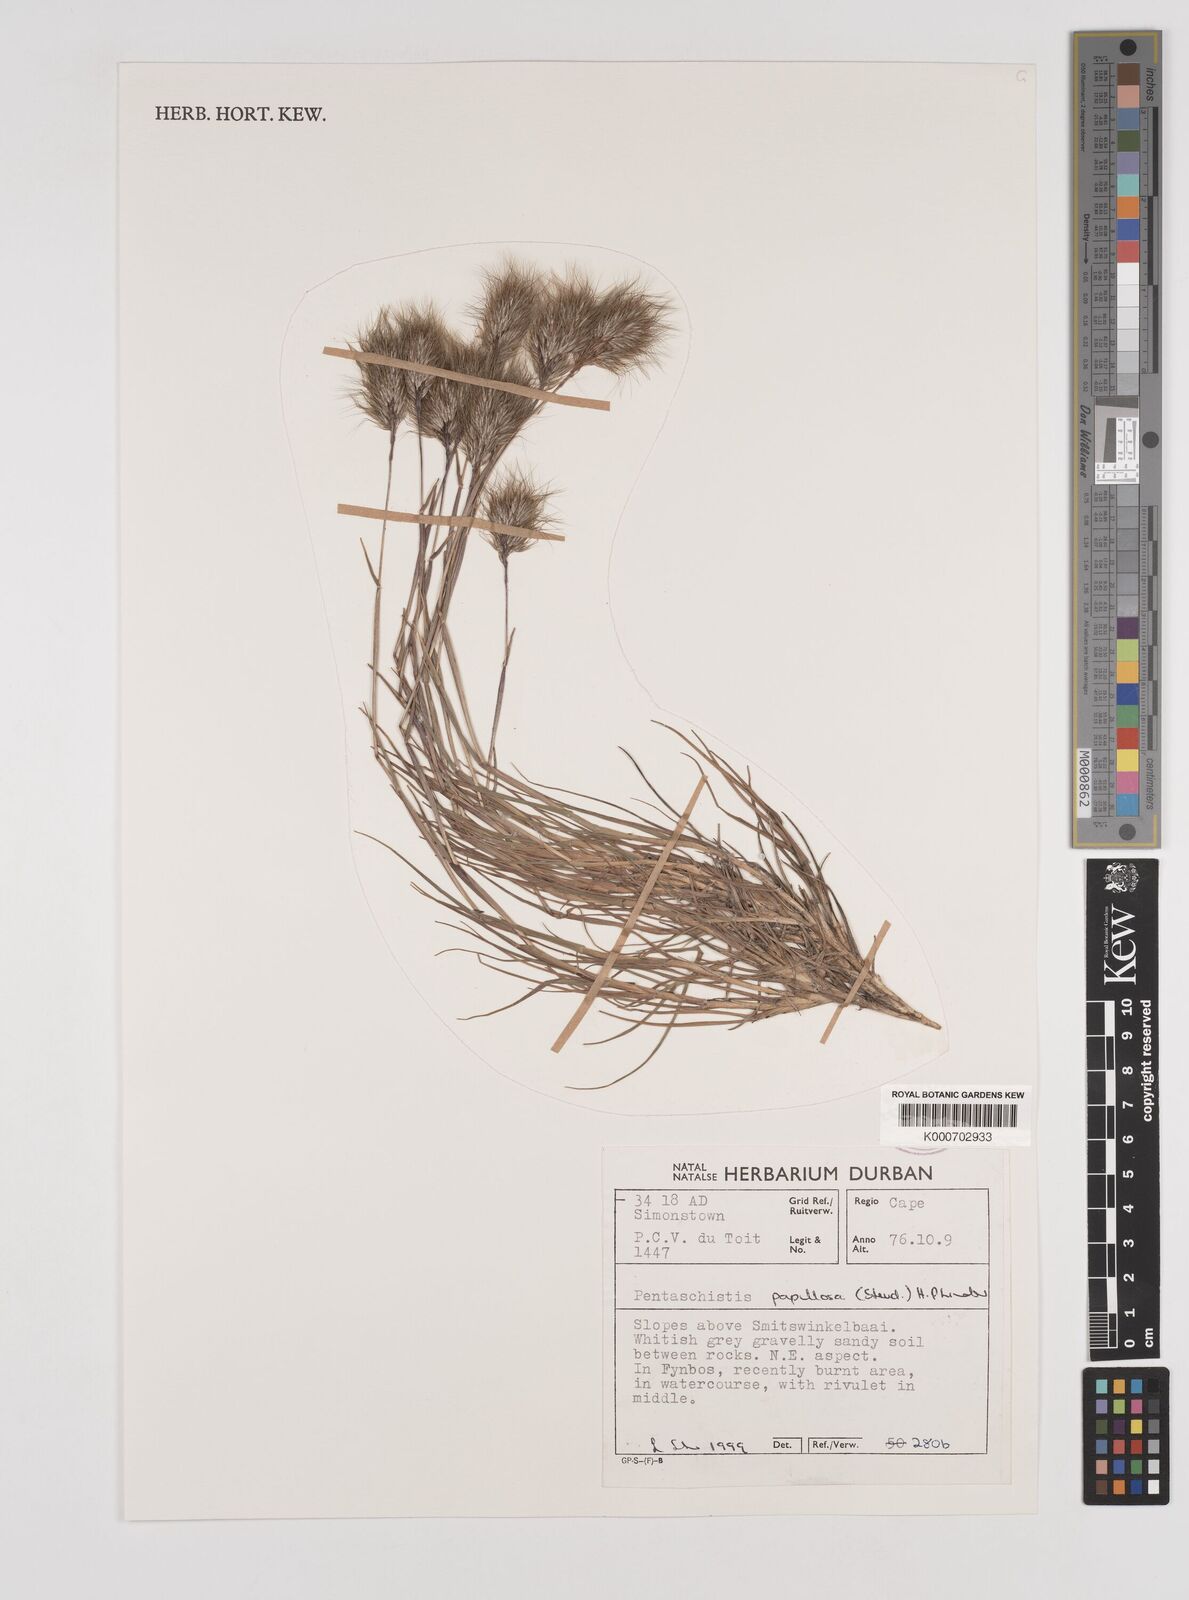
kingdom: Plantae
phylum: Tracheophyta
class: Liliopsida
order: Poales
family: Poaceae
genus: Pentameris
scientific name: Pentameris scabra
